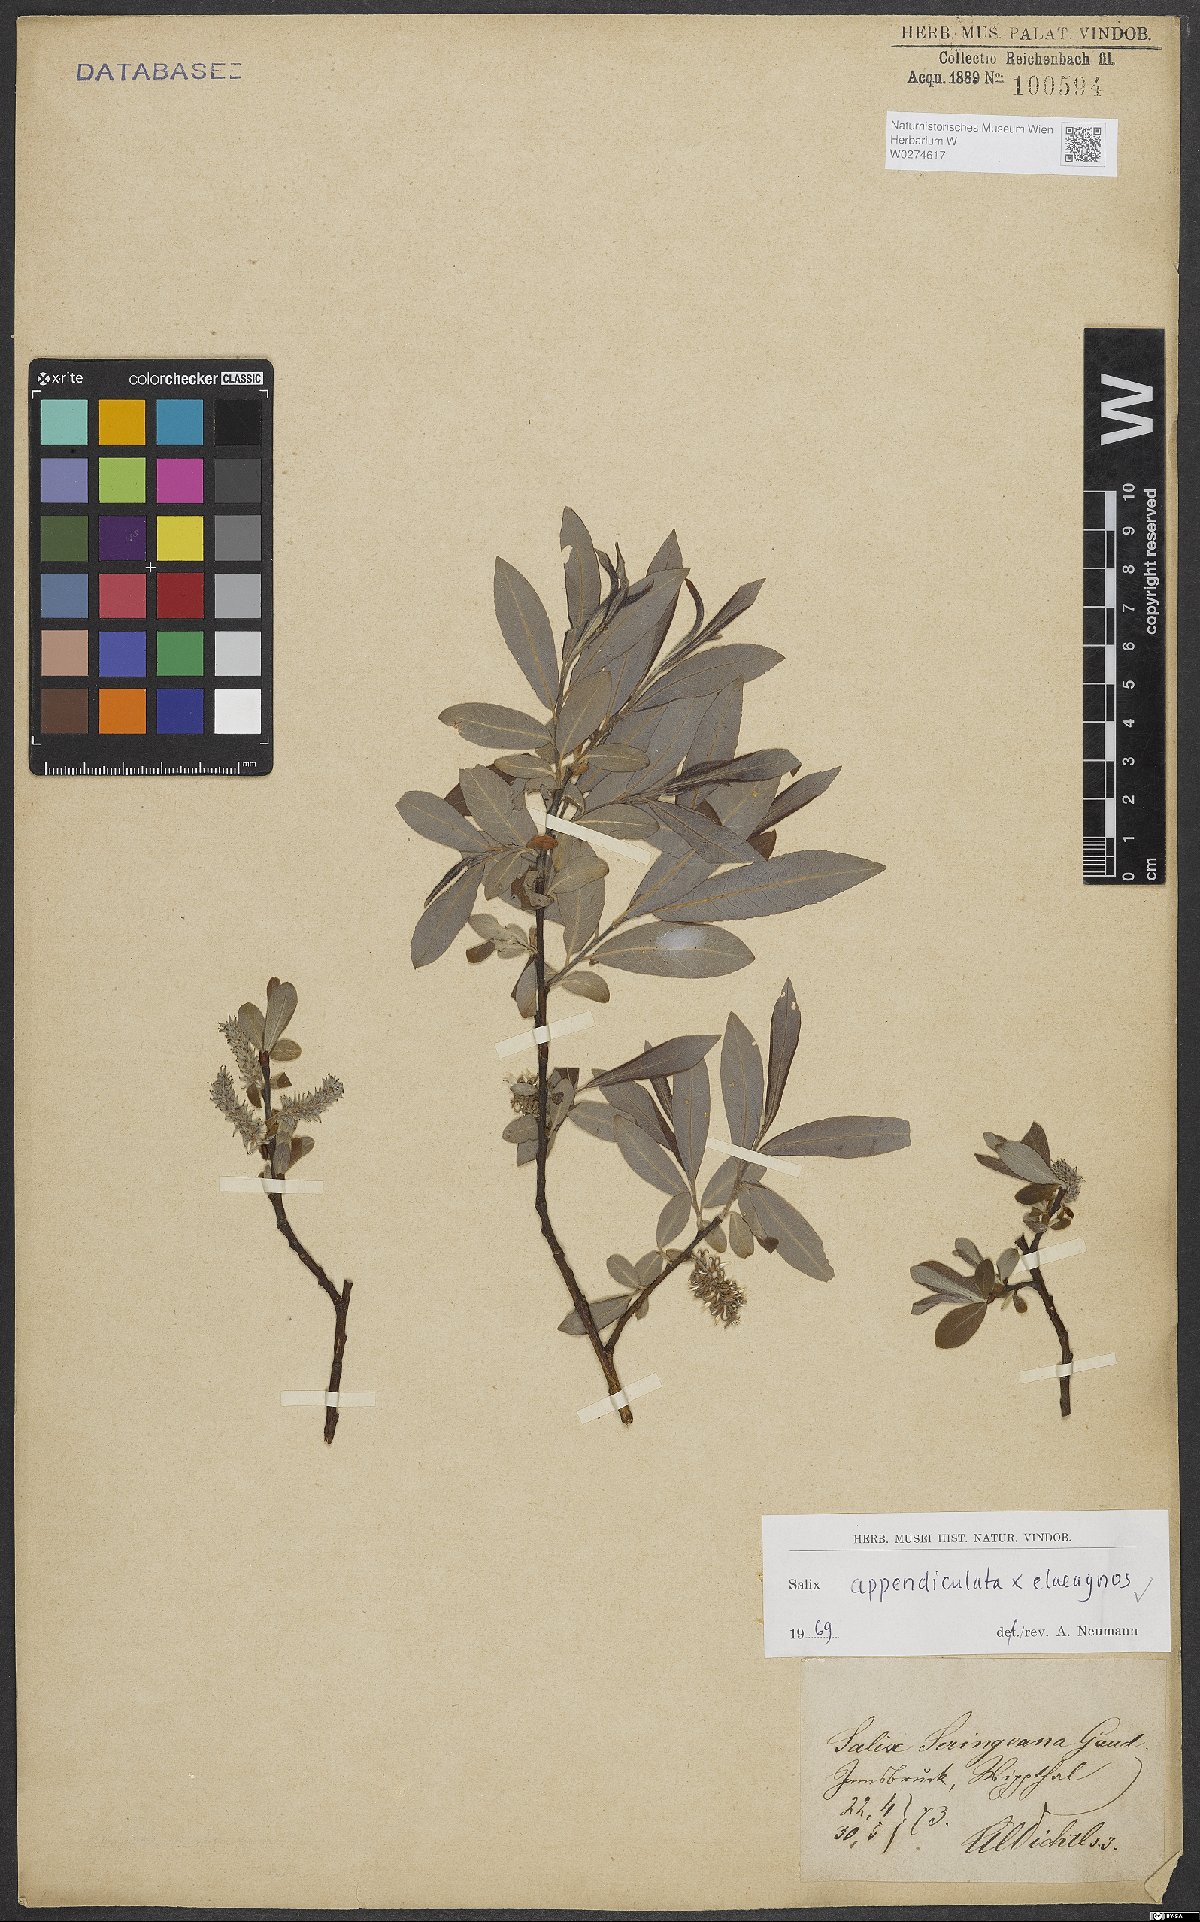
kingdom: Plantae
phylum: Tracheophyta
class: Magnoliopsida
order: Malpighiales
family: Salicaceae
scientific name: Salicaceae
